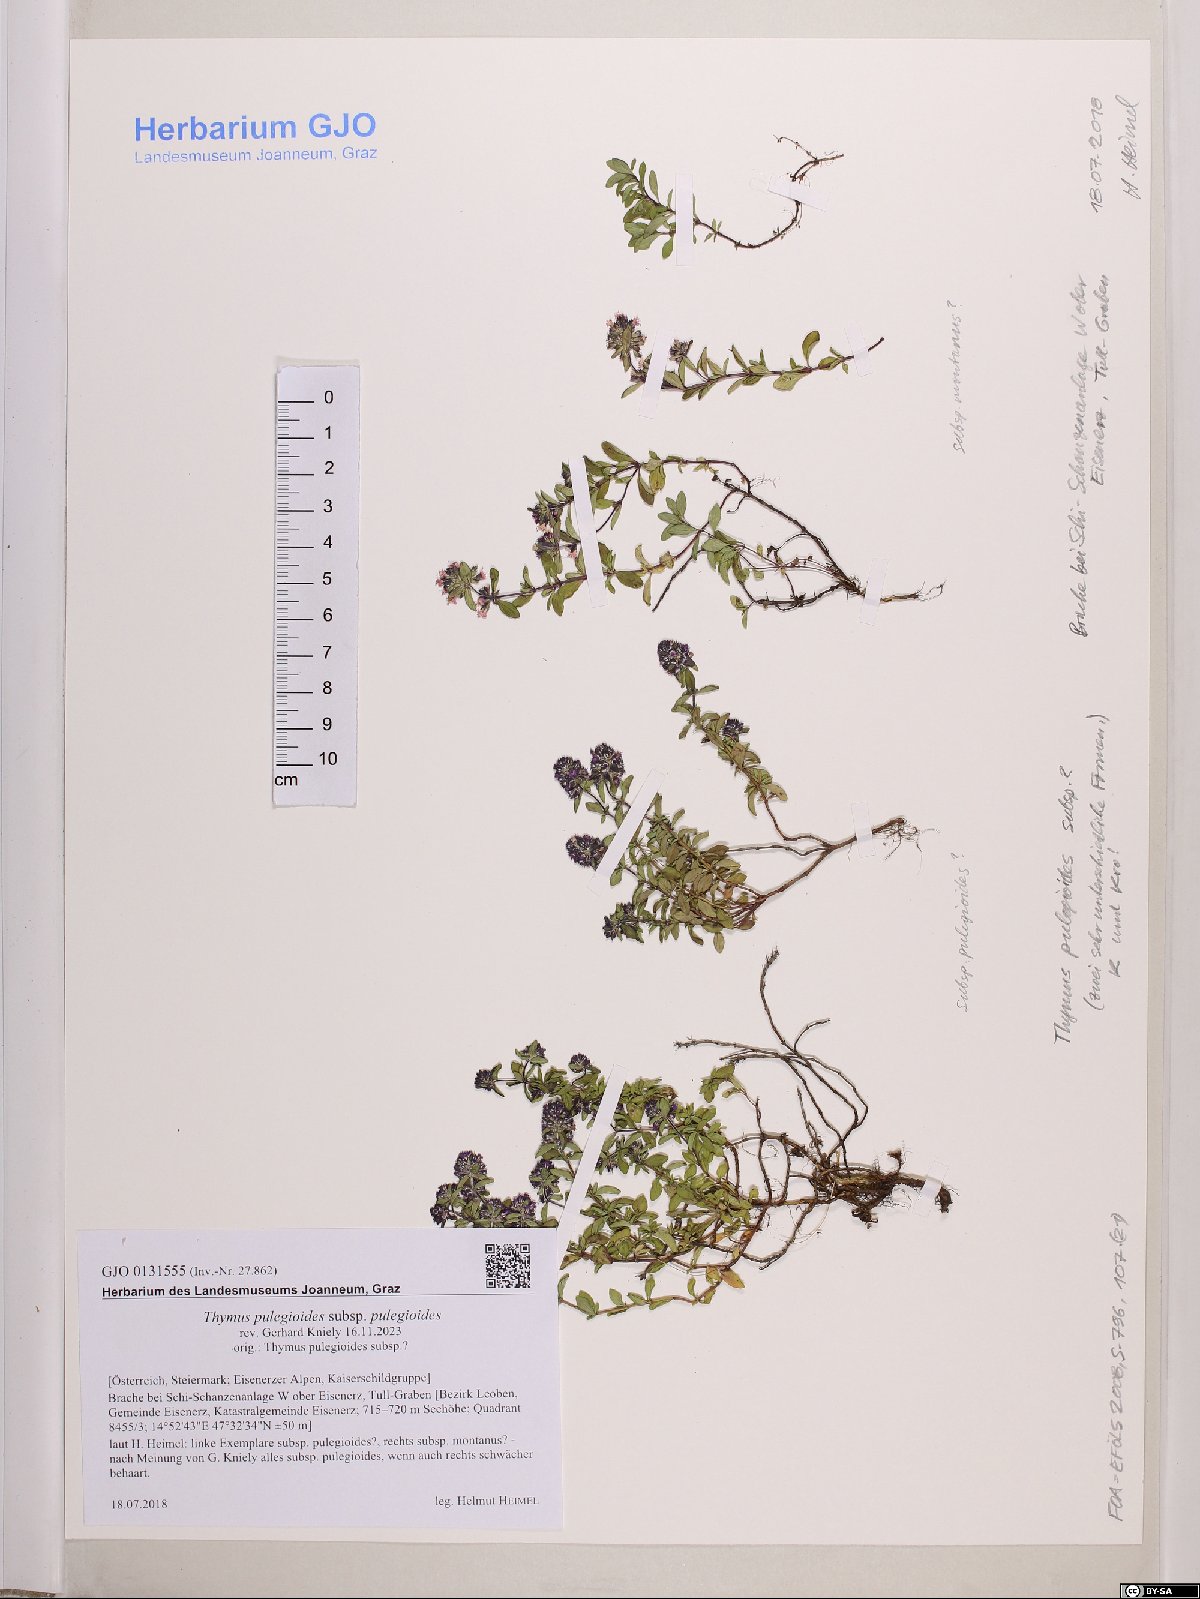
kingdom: Plantae
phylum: Tracheophyta
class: Magnoliopsida
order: Lamiales
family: Lamiaceae
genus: Thymus
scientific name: Thymus pulegioides
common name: Large thyme
